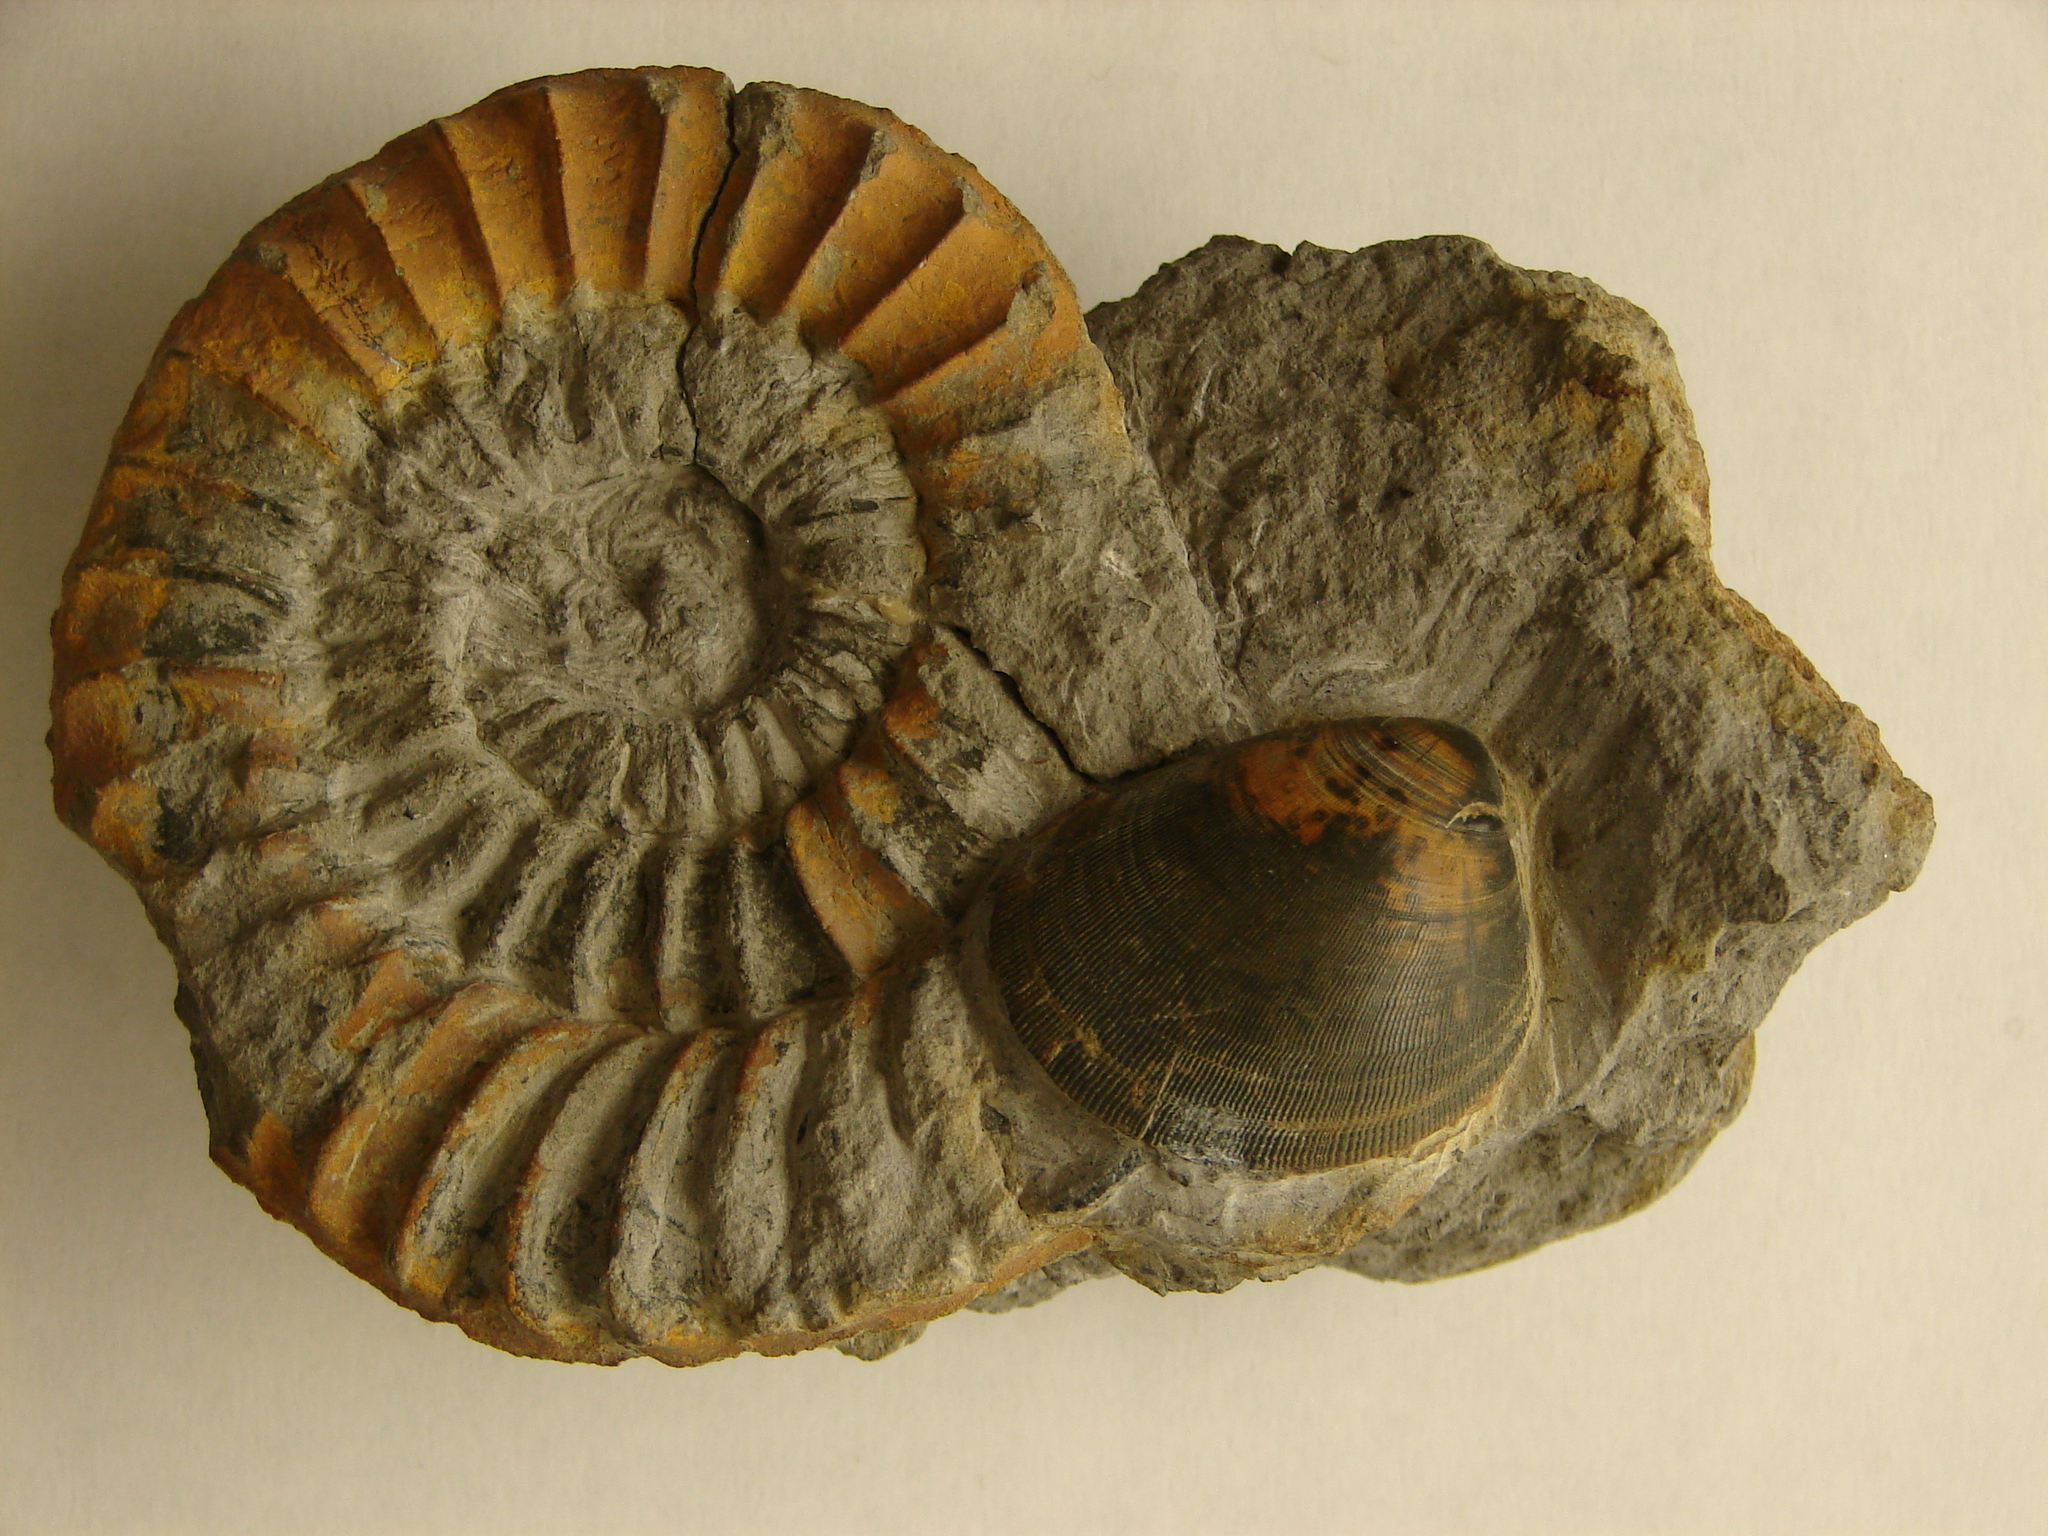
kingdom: Animalia
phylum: Mollusca
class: Cephalopoda
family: Arietitidae
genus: Arnioceras
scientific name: Arnioceras
